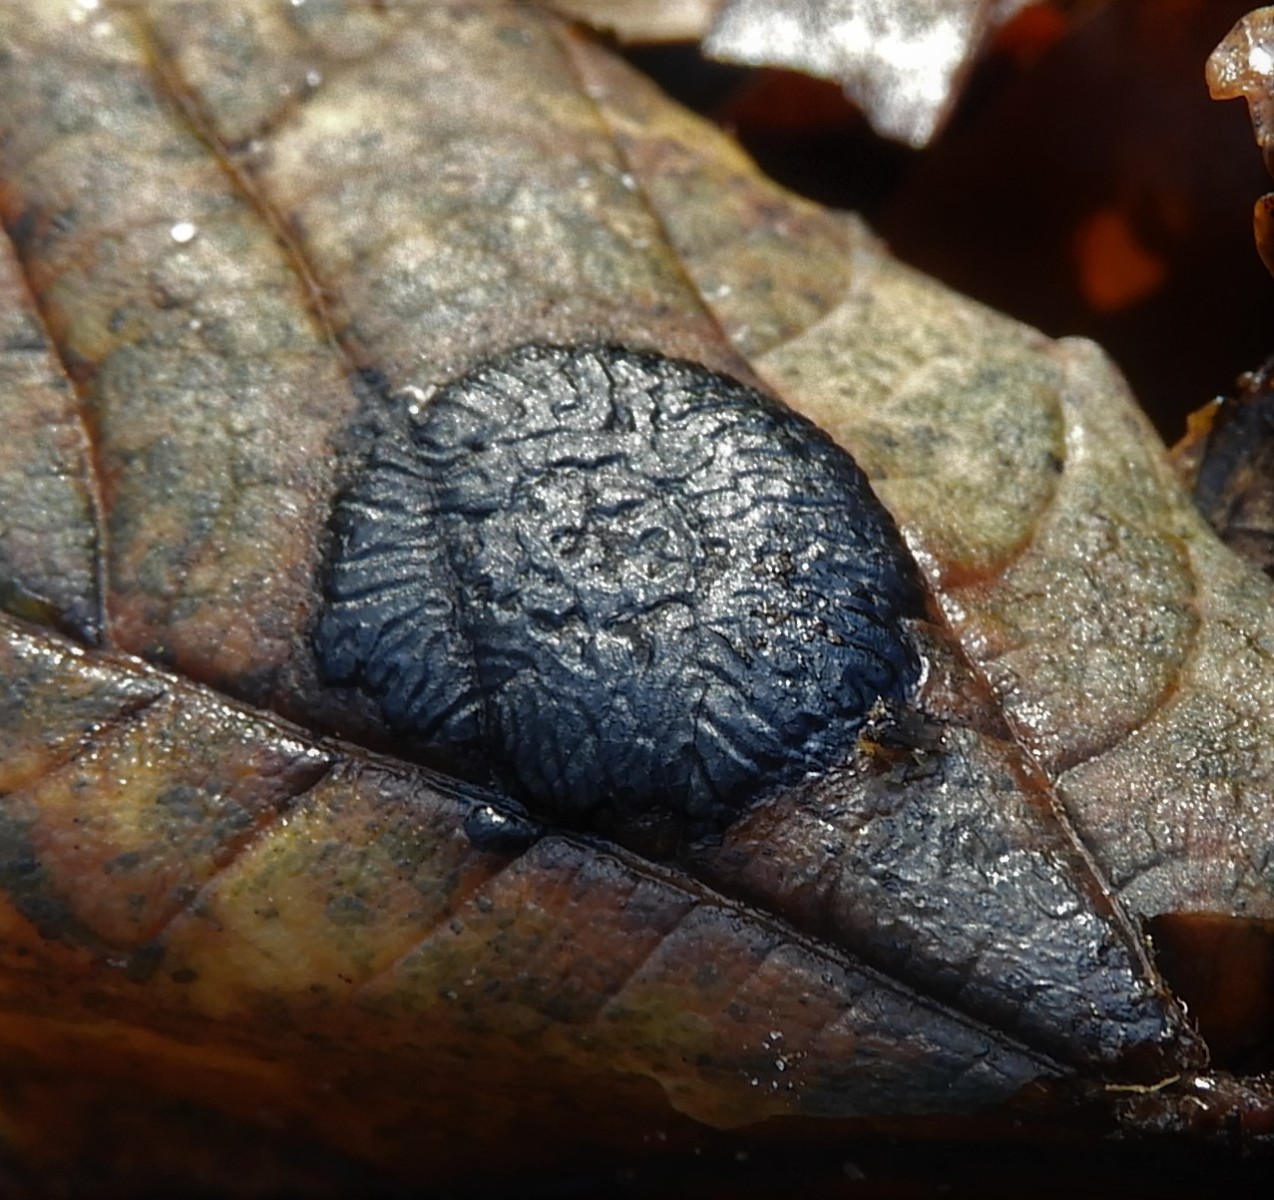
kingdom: Fungi
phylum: Ascomycota
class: Leotiomycetes
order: Rhytismatales
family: Rhytismataceae
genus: Rhytisma
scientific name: Rhytisma acerinum
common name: ahorn-rynkeplet
